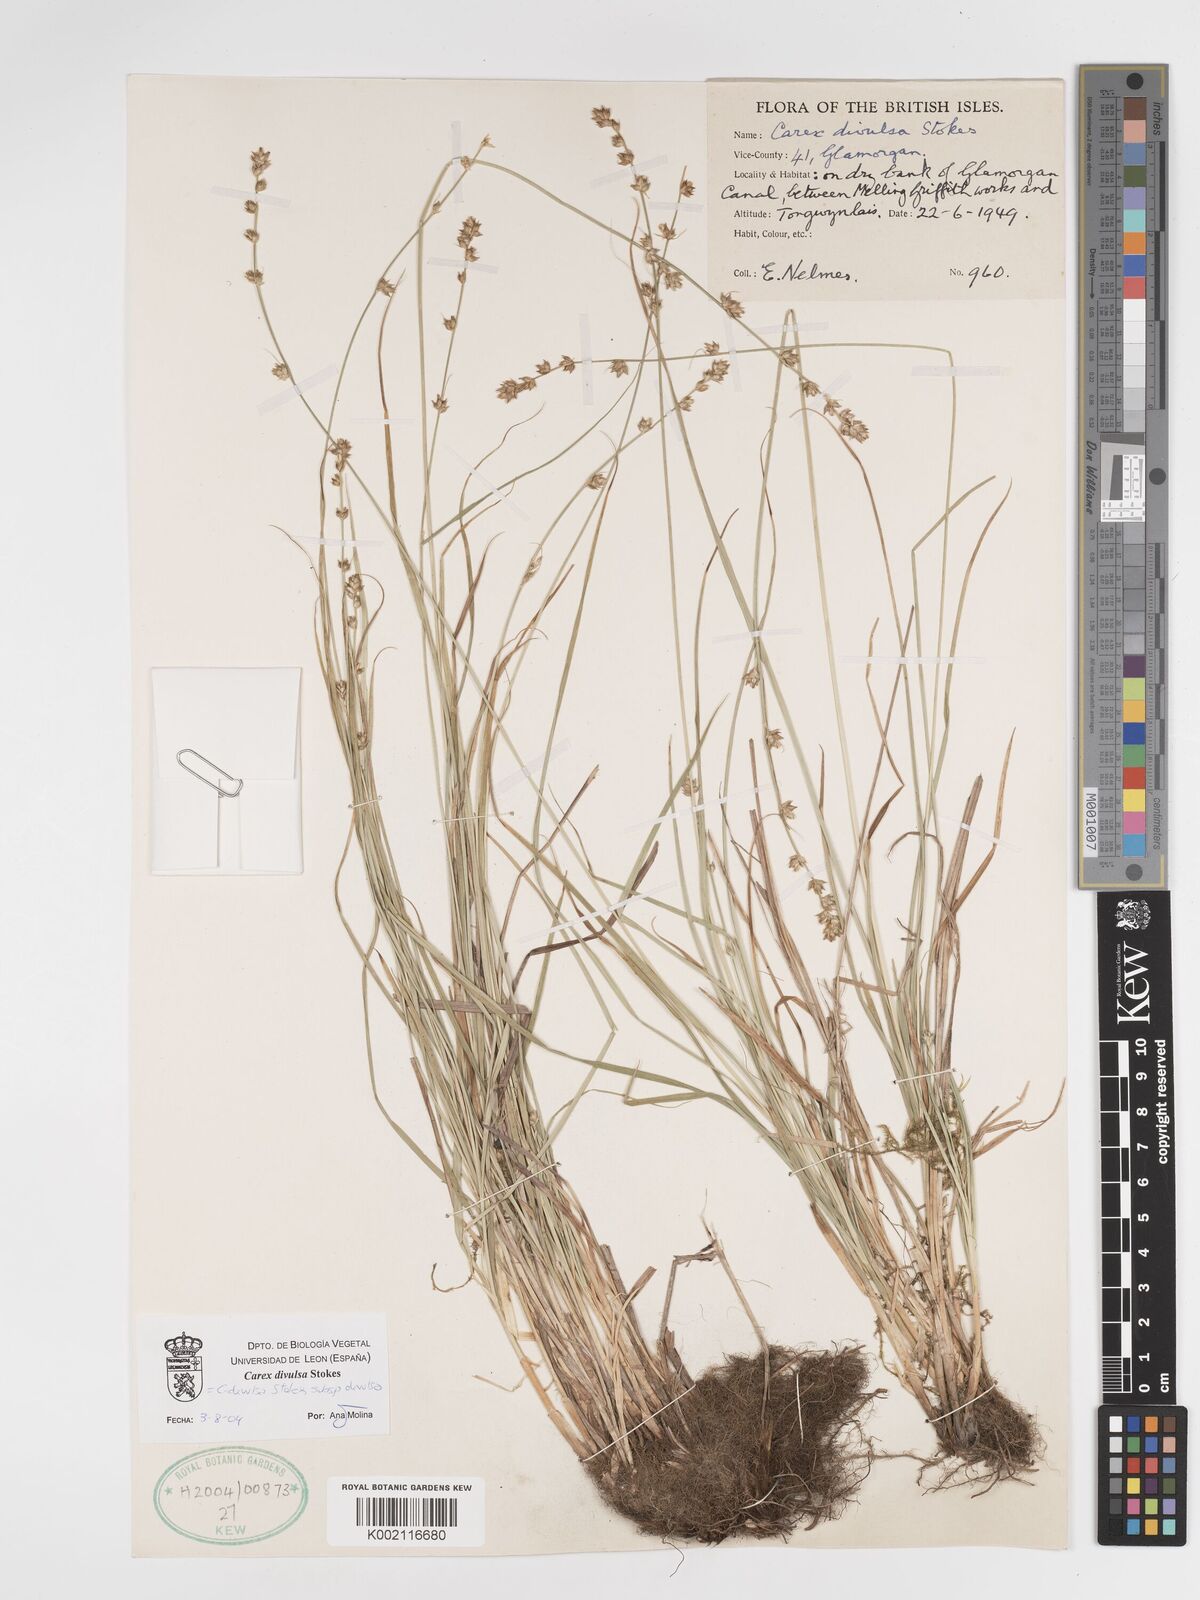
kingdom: Plantae
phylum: Tracheophyta
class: Liliopsida
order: Poales
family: Cyperaceae
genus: Carex
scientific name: Carex divulsa
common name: Grassland sedge
